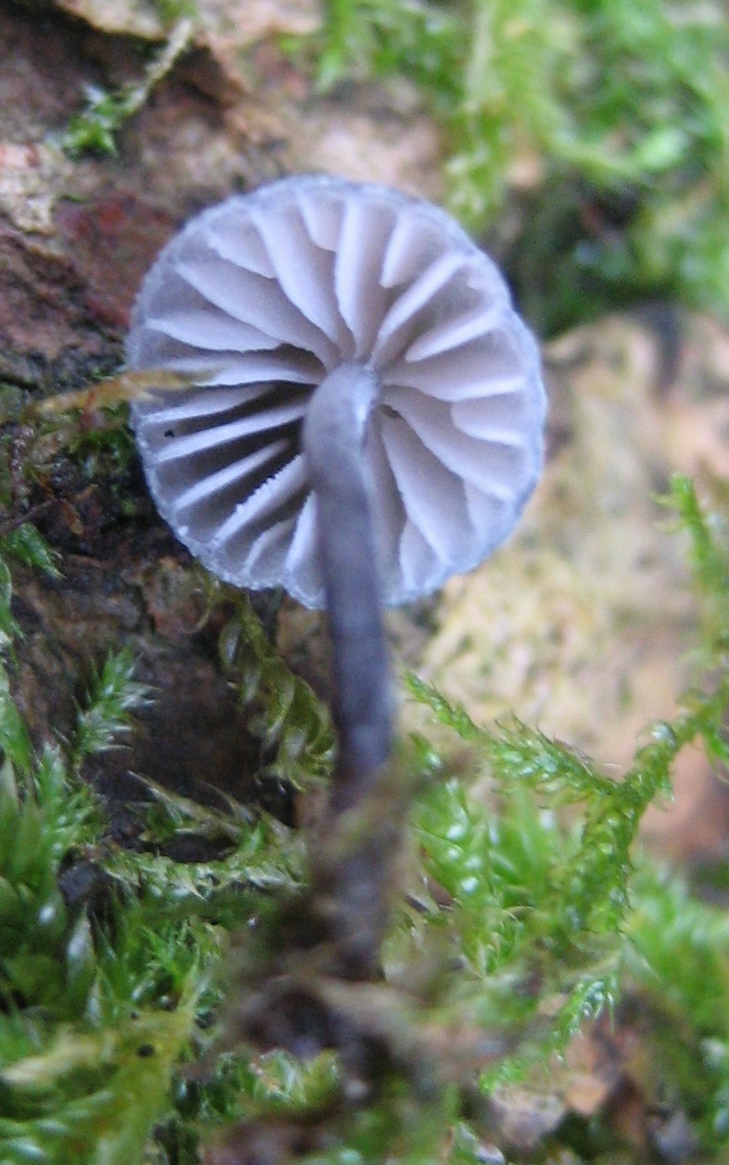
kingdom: Fungi
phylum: Basidiomycota
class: Agaricomycetes
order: Agaricales
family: Mycenaceae
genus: Mycena
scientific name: Mycena pseudocorticola
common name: gråblå bark-huesvamp
